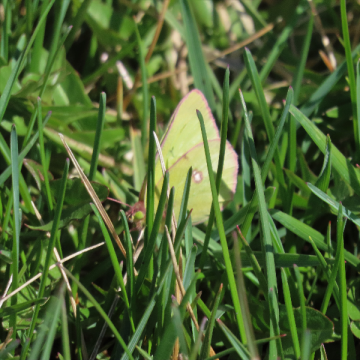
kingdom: Animalia
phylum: Arthropoda
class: Insecta
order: Lepidoptera
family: Pieridae
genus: Colias
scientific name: Colias philodice
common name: Clouded Sulphur
